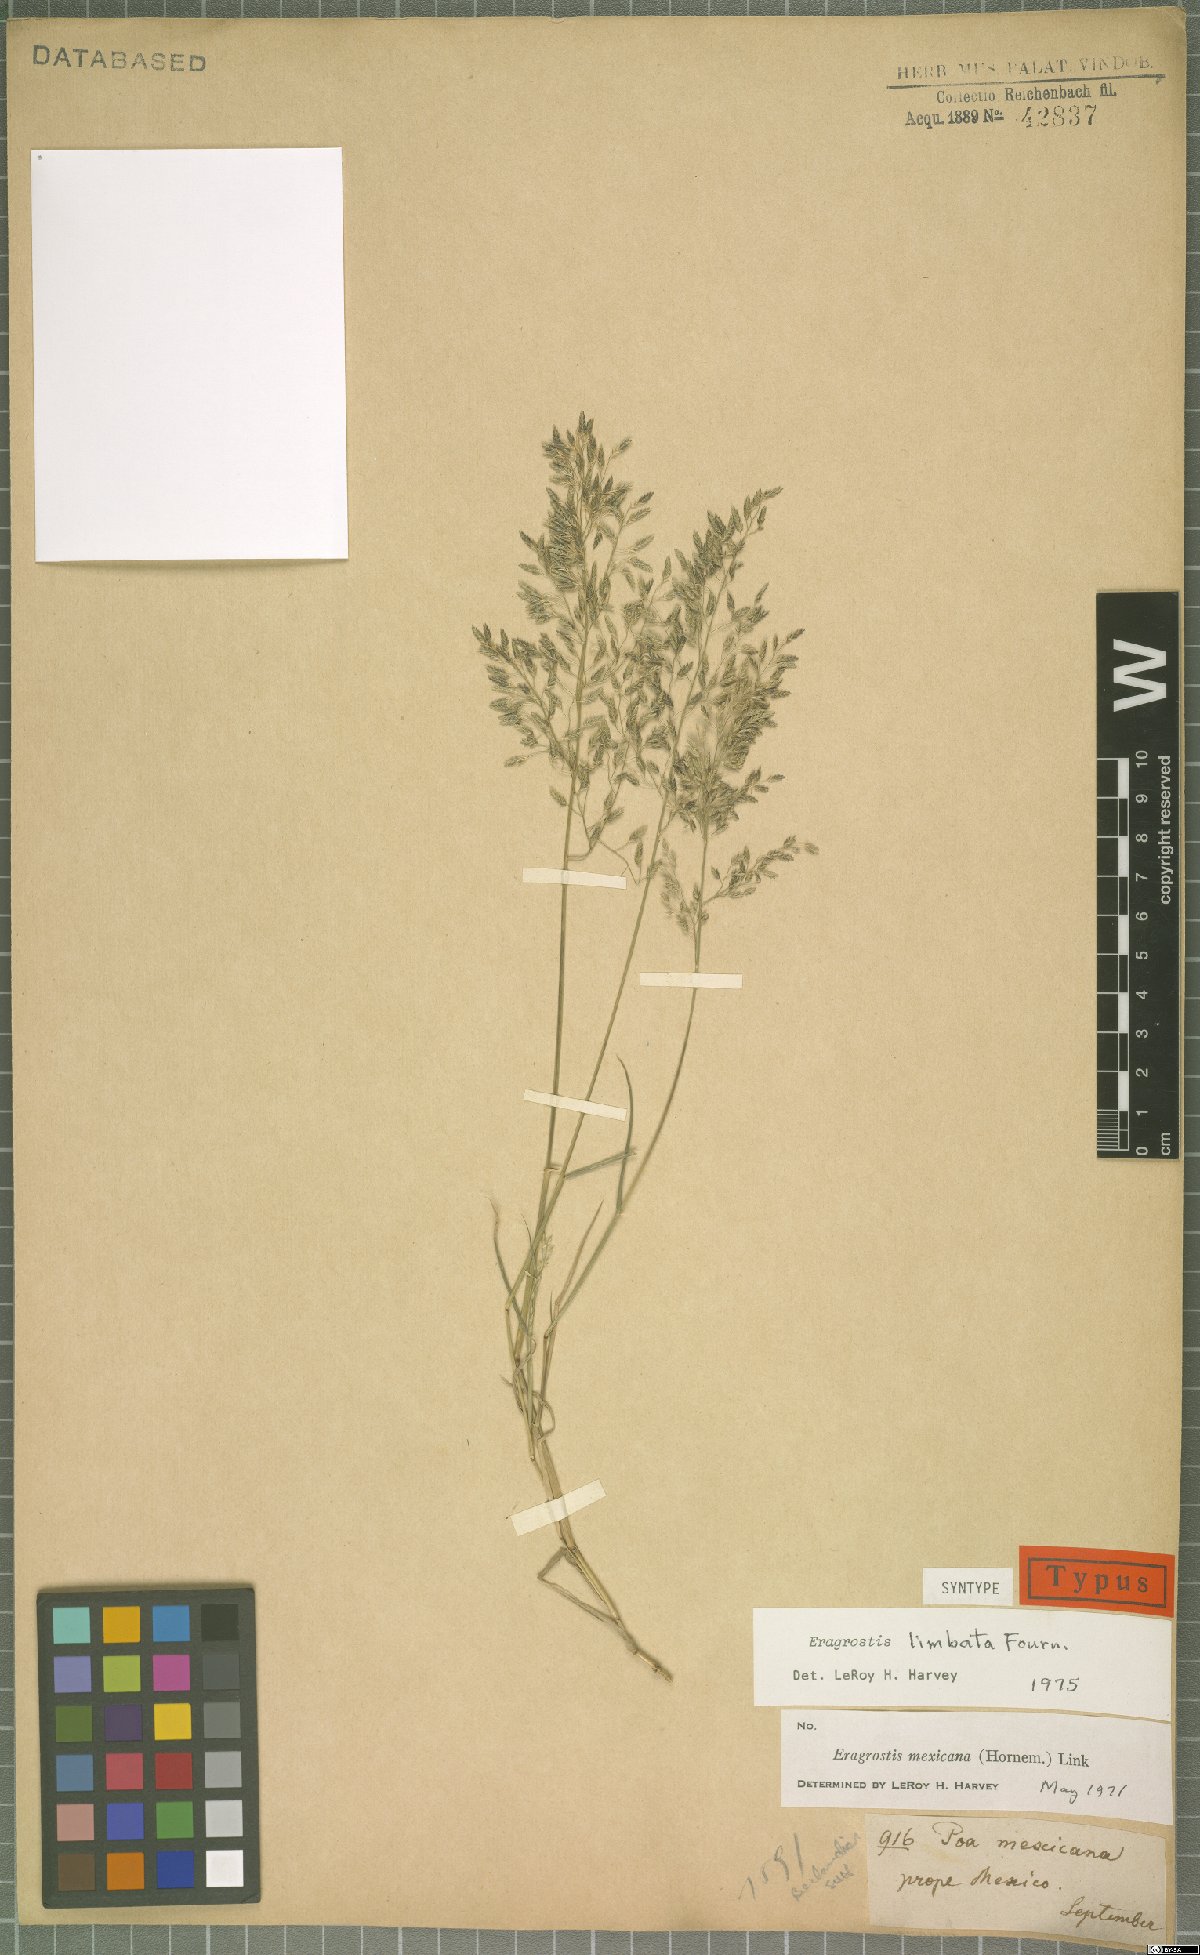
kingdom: Plantae
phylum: Tracheophyta
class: Liliopsida
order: Poales
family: Poaceae
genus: Eragrostis
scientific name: Eragrostis mexicana
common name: Mexican love grass
